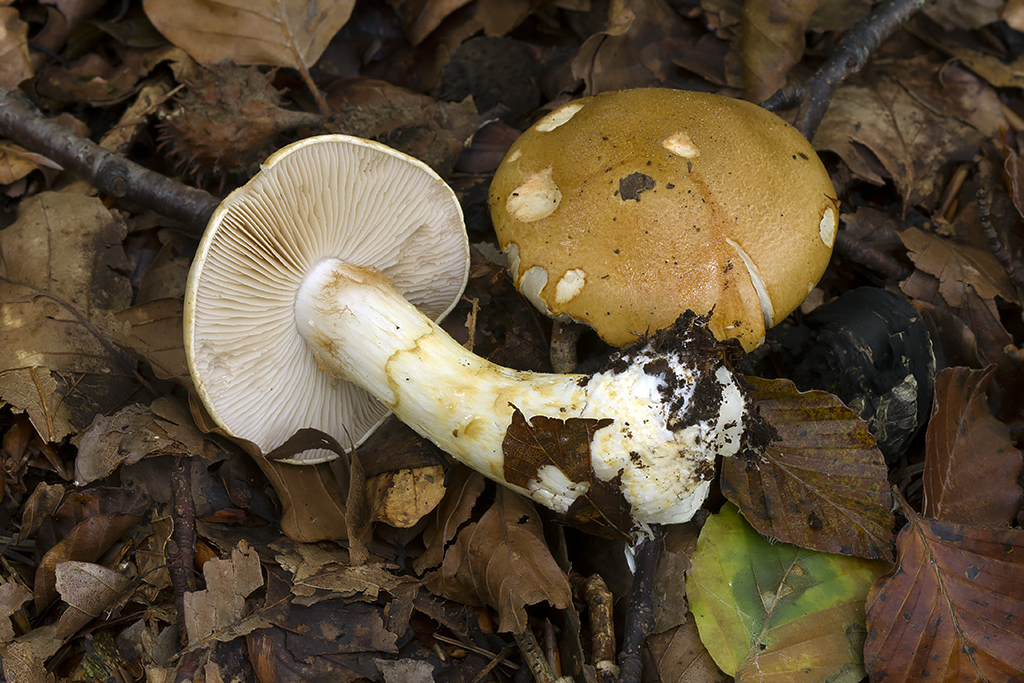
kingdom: Fungi
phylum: Basidiomycota
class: Agaricomycetes
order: Agaricales
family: Cortinariaceae
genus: Phlegmacium
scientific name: Phlegmacium cliduchus
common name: majs-slørhat
